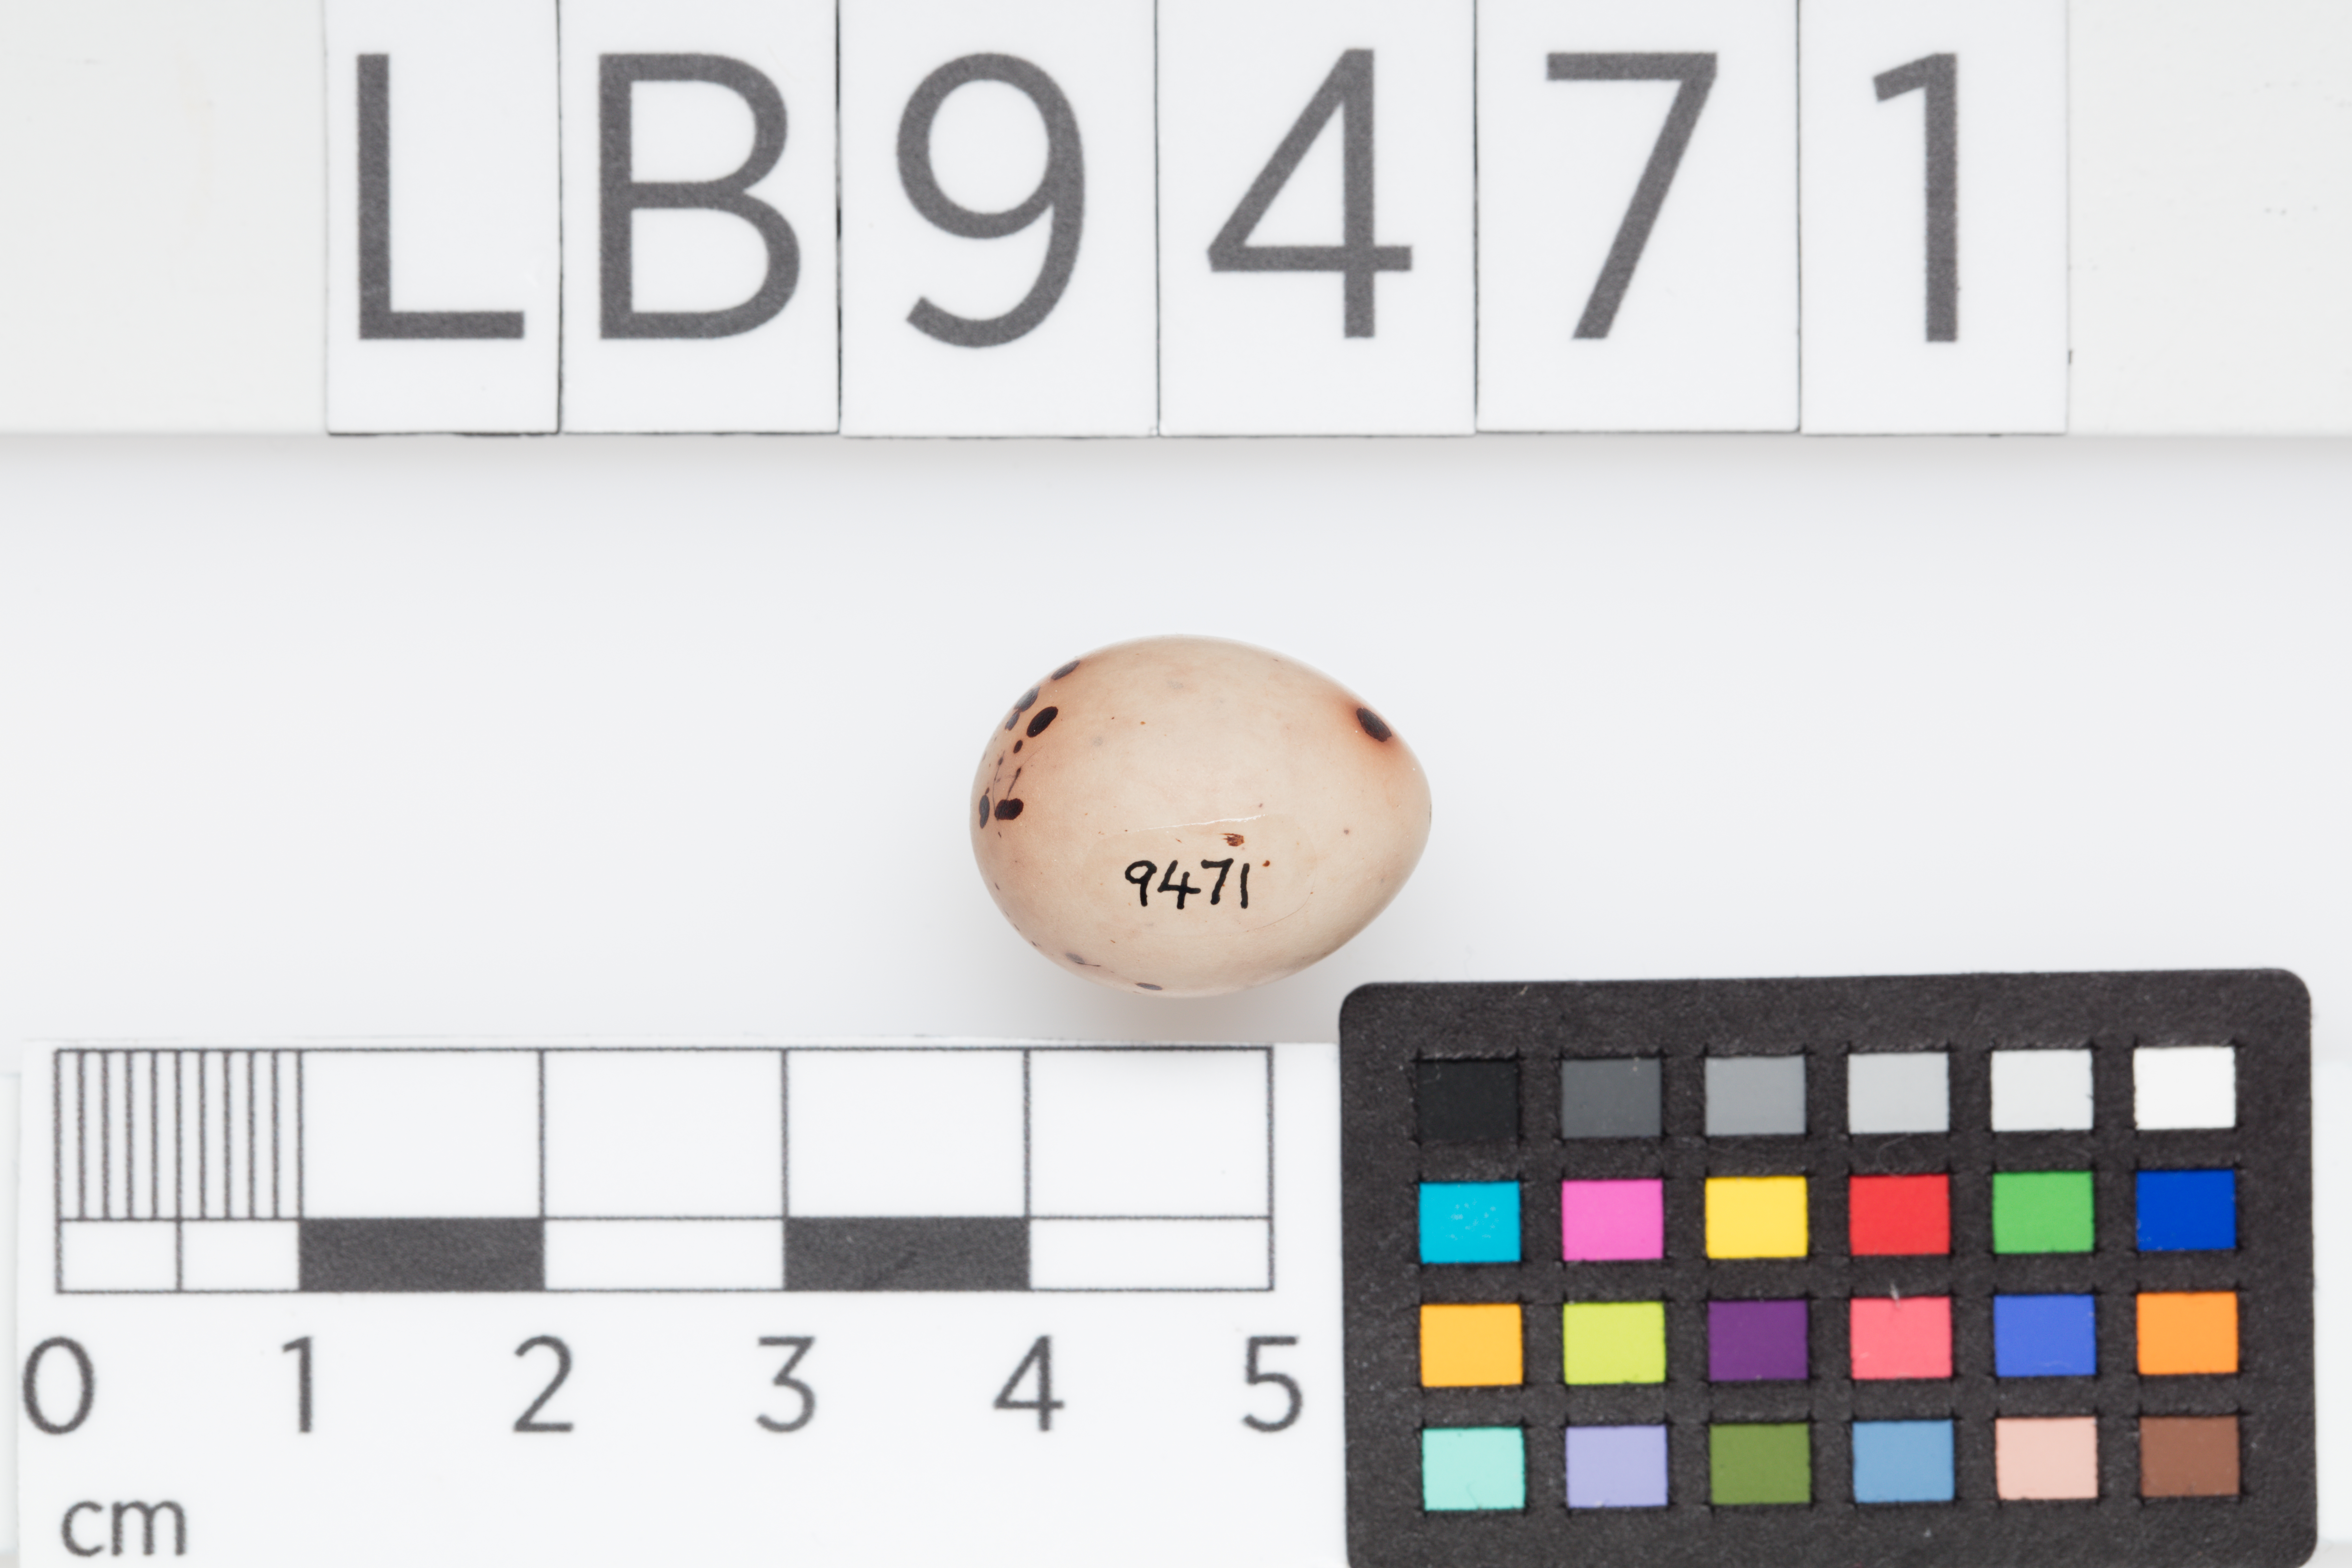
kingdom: Animalia
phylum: Chordata
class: Aves
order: Passeriformes
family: Fringillidae
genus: Fringilla
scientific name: Fringilla coelebs
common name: Common chaffinch
